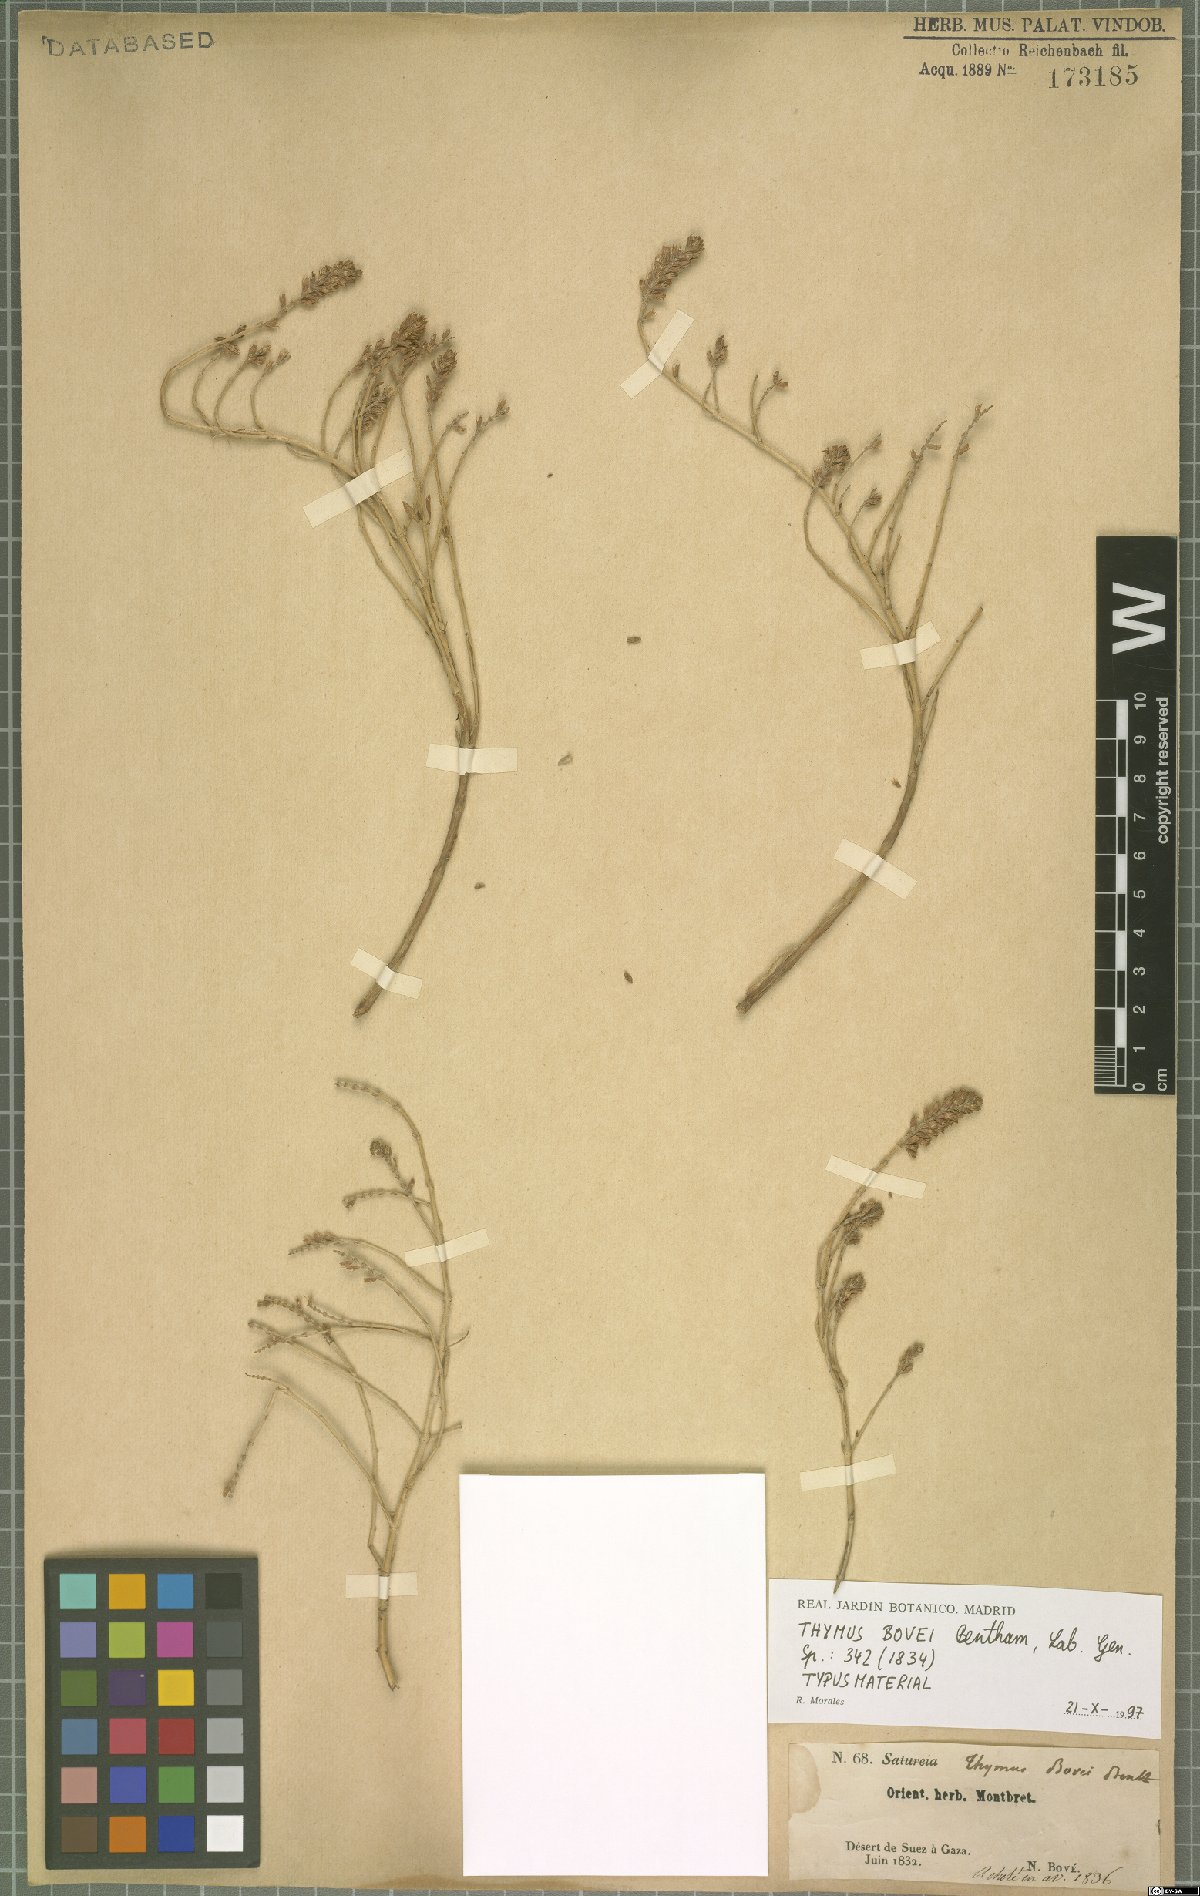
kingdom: Plantae
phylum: Tracheophyta
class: Magnoliopsida
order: Lamiales
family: Lamiaceae
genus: Thymus
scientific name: Thymus bovei
